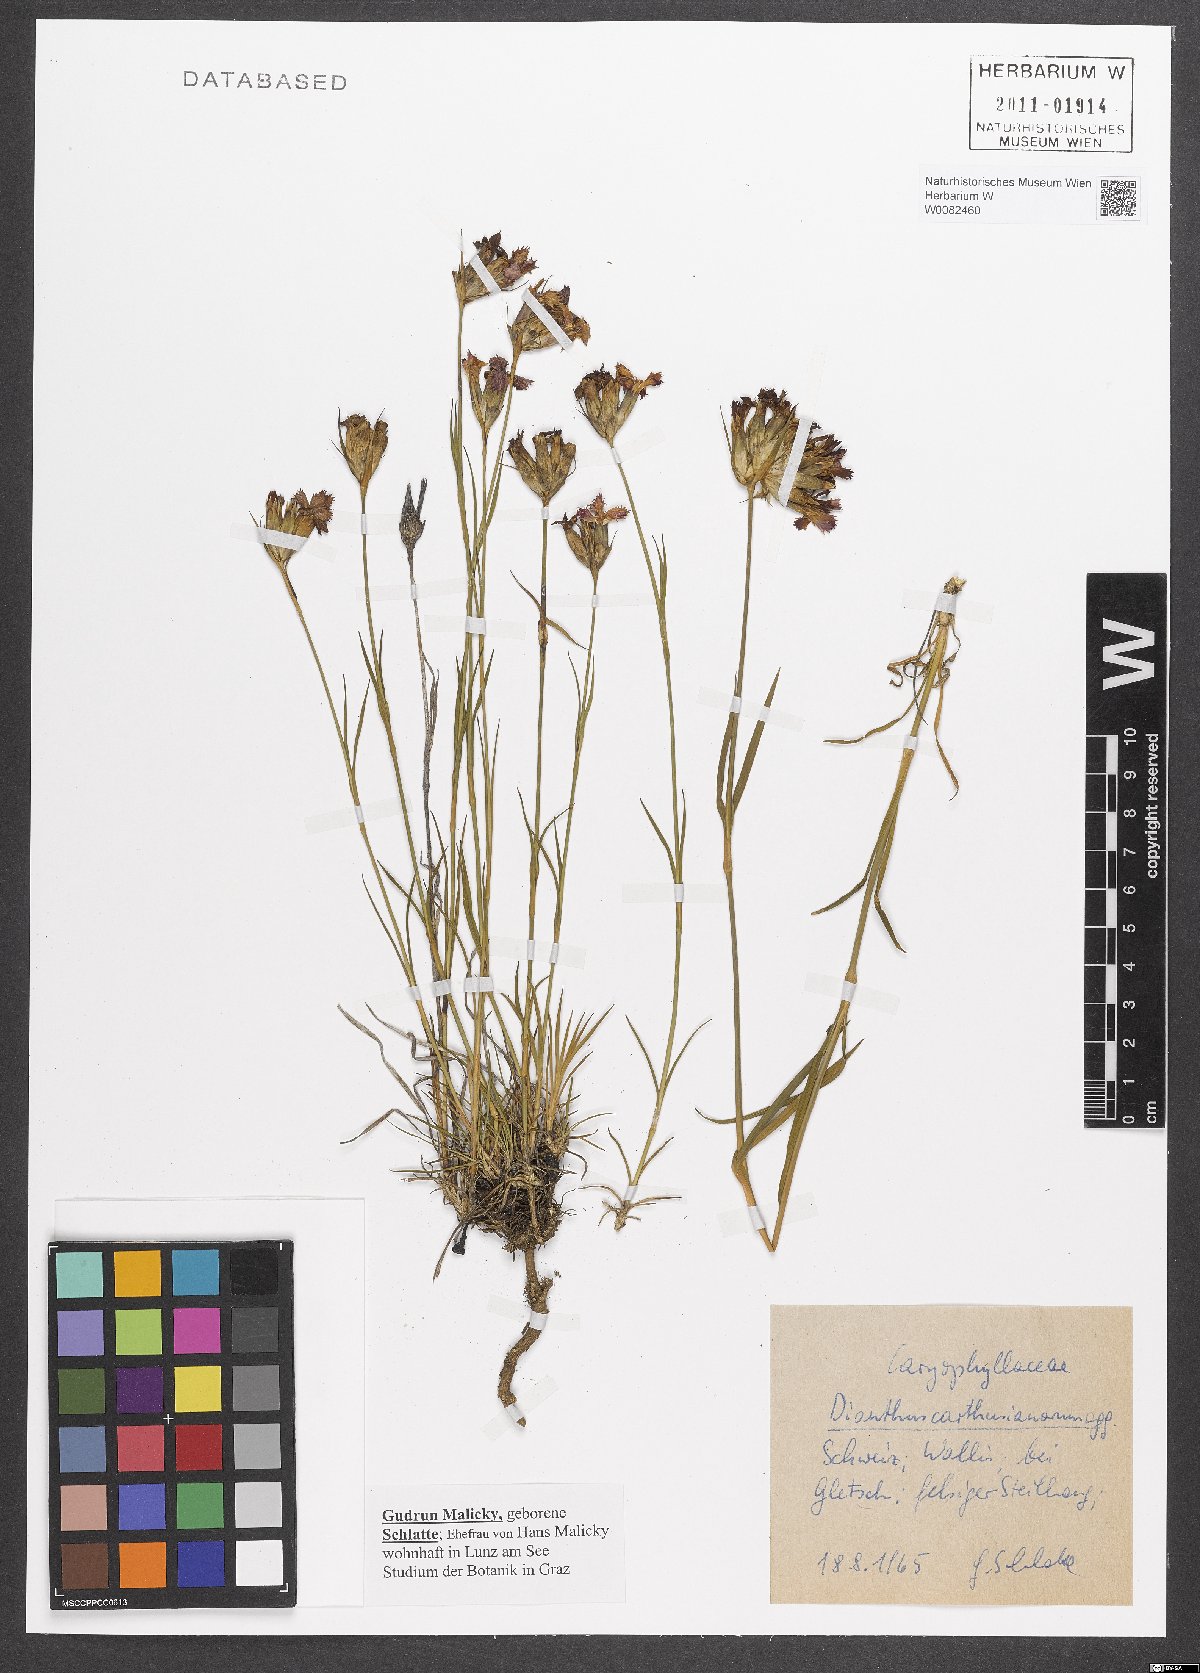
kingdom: Plantae
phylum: Tracheophyta
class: Magnoliopsida
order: Caryophyllales
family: Caryophyllaceae
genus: Dianthus
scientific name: Dianthus carthusianorum
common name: Carthusian pink
